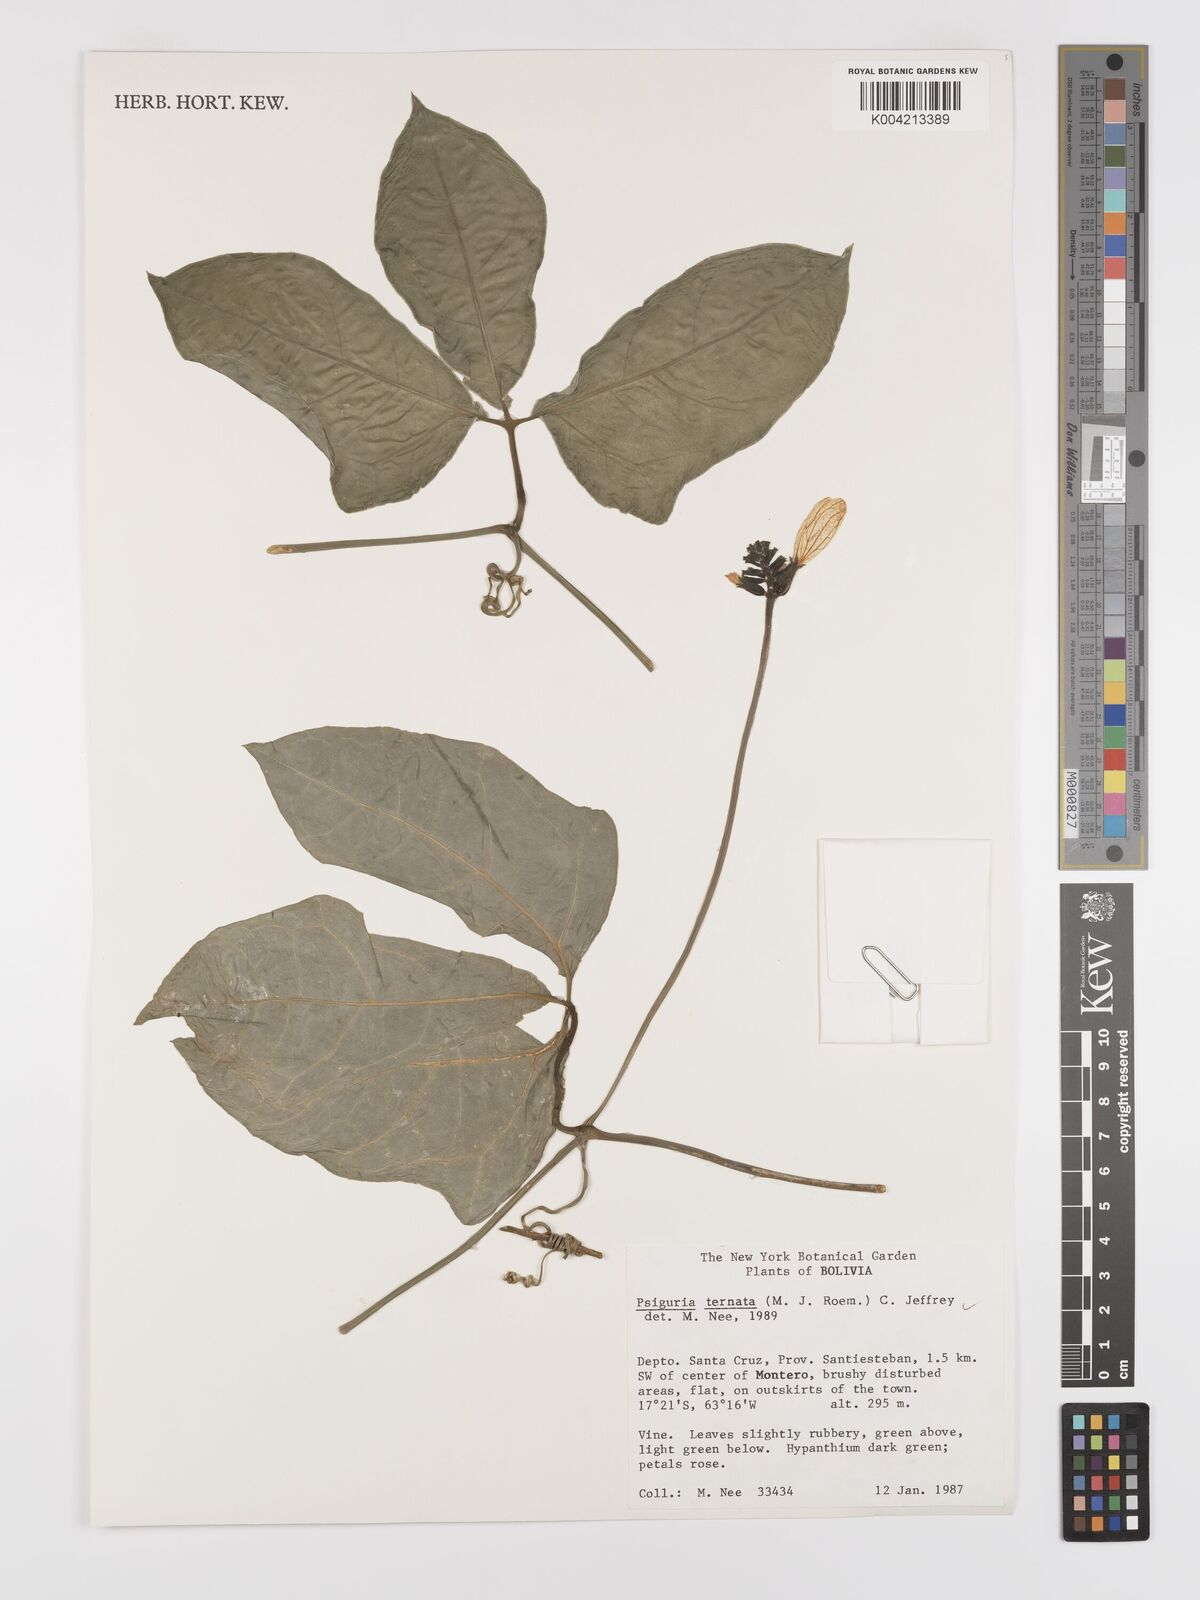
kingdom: Plantae
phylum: Tracheophyta
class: Magnoliopsida
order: Cucurbitales
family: Cucurbitaceae
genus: Psiguria
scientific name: Psiguria ternata
